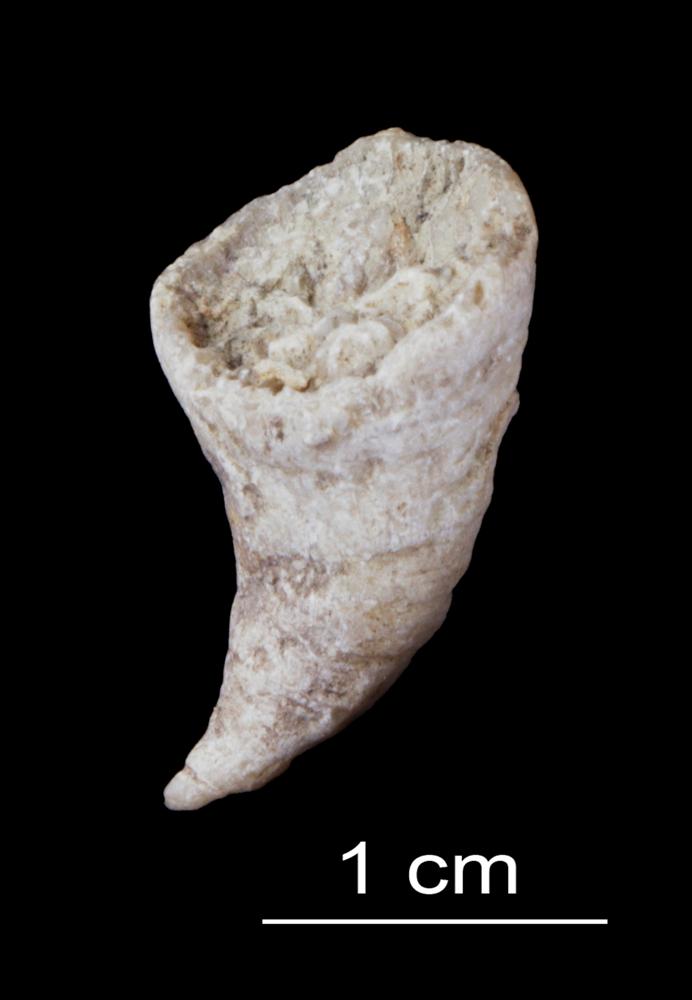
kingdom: Animalia
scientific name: Animalia
